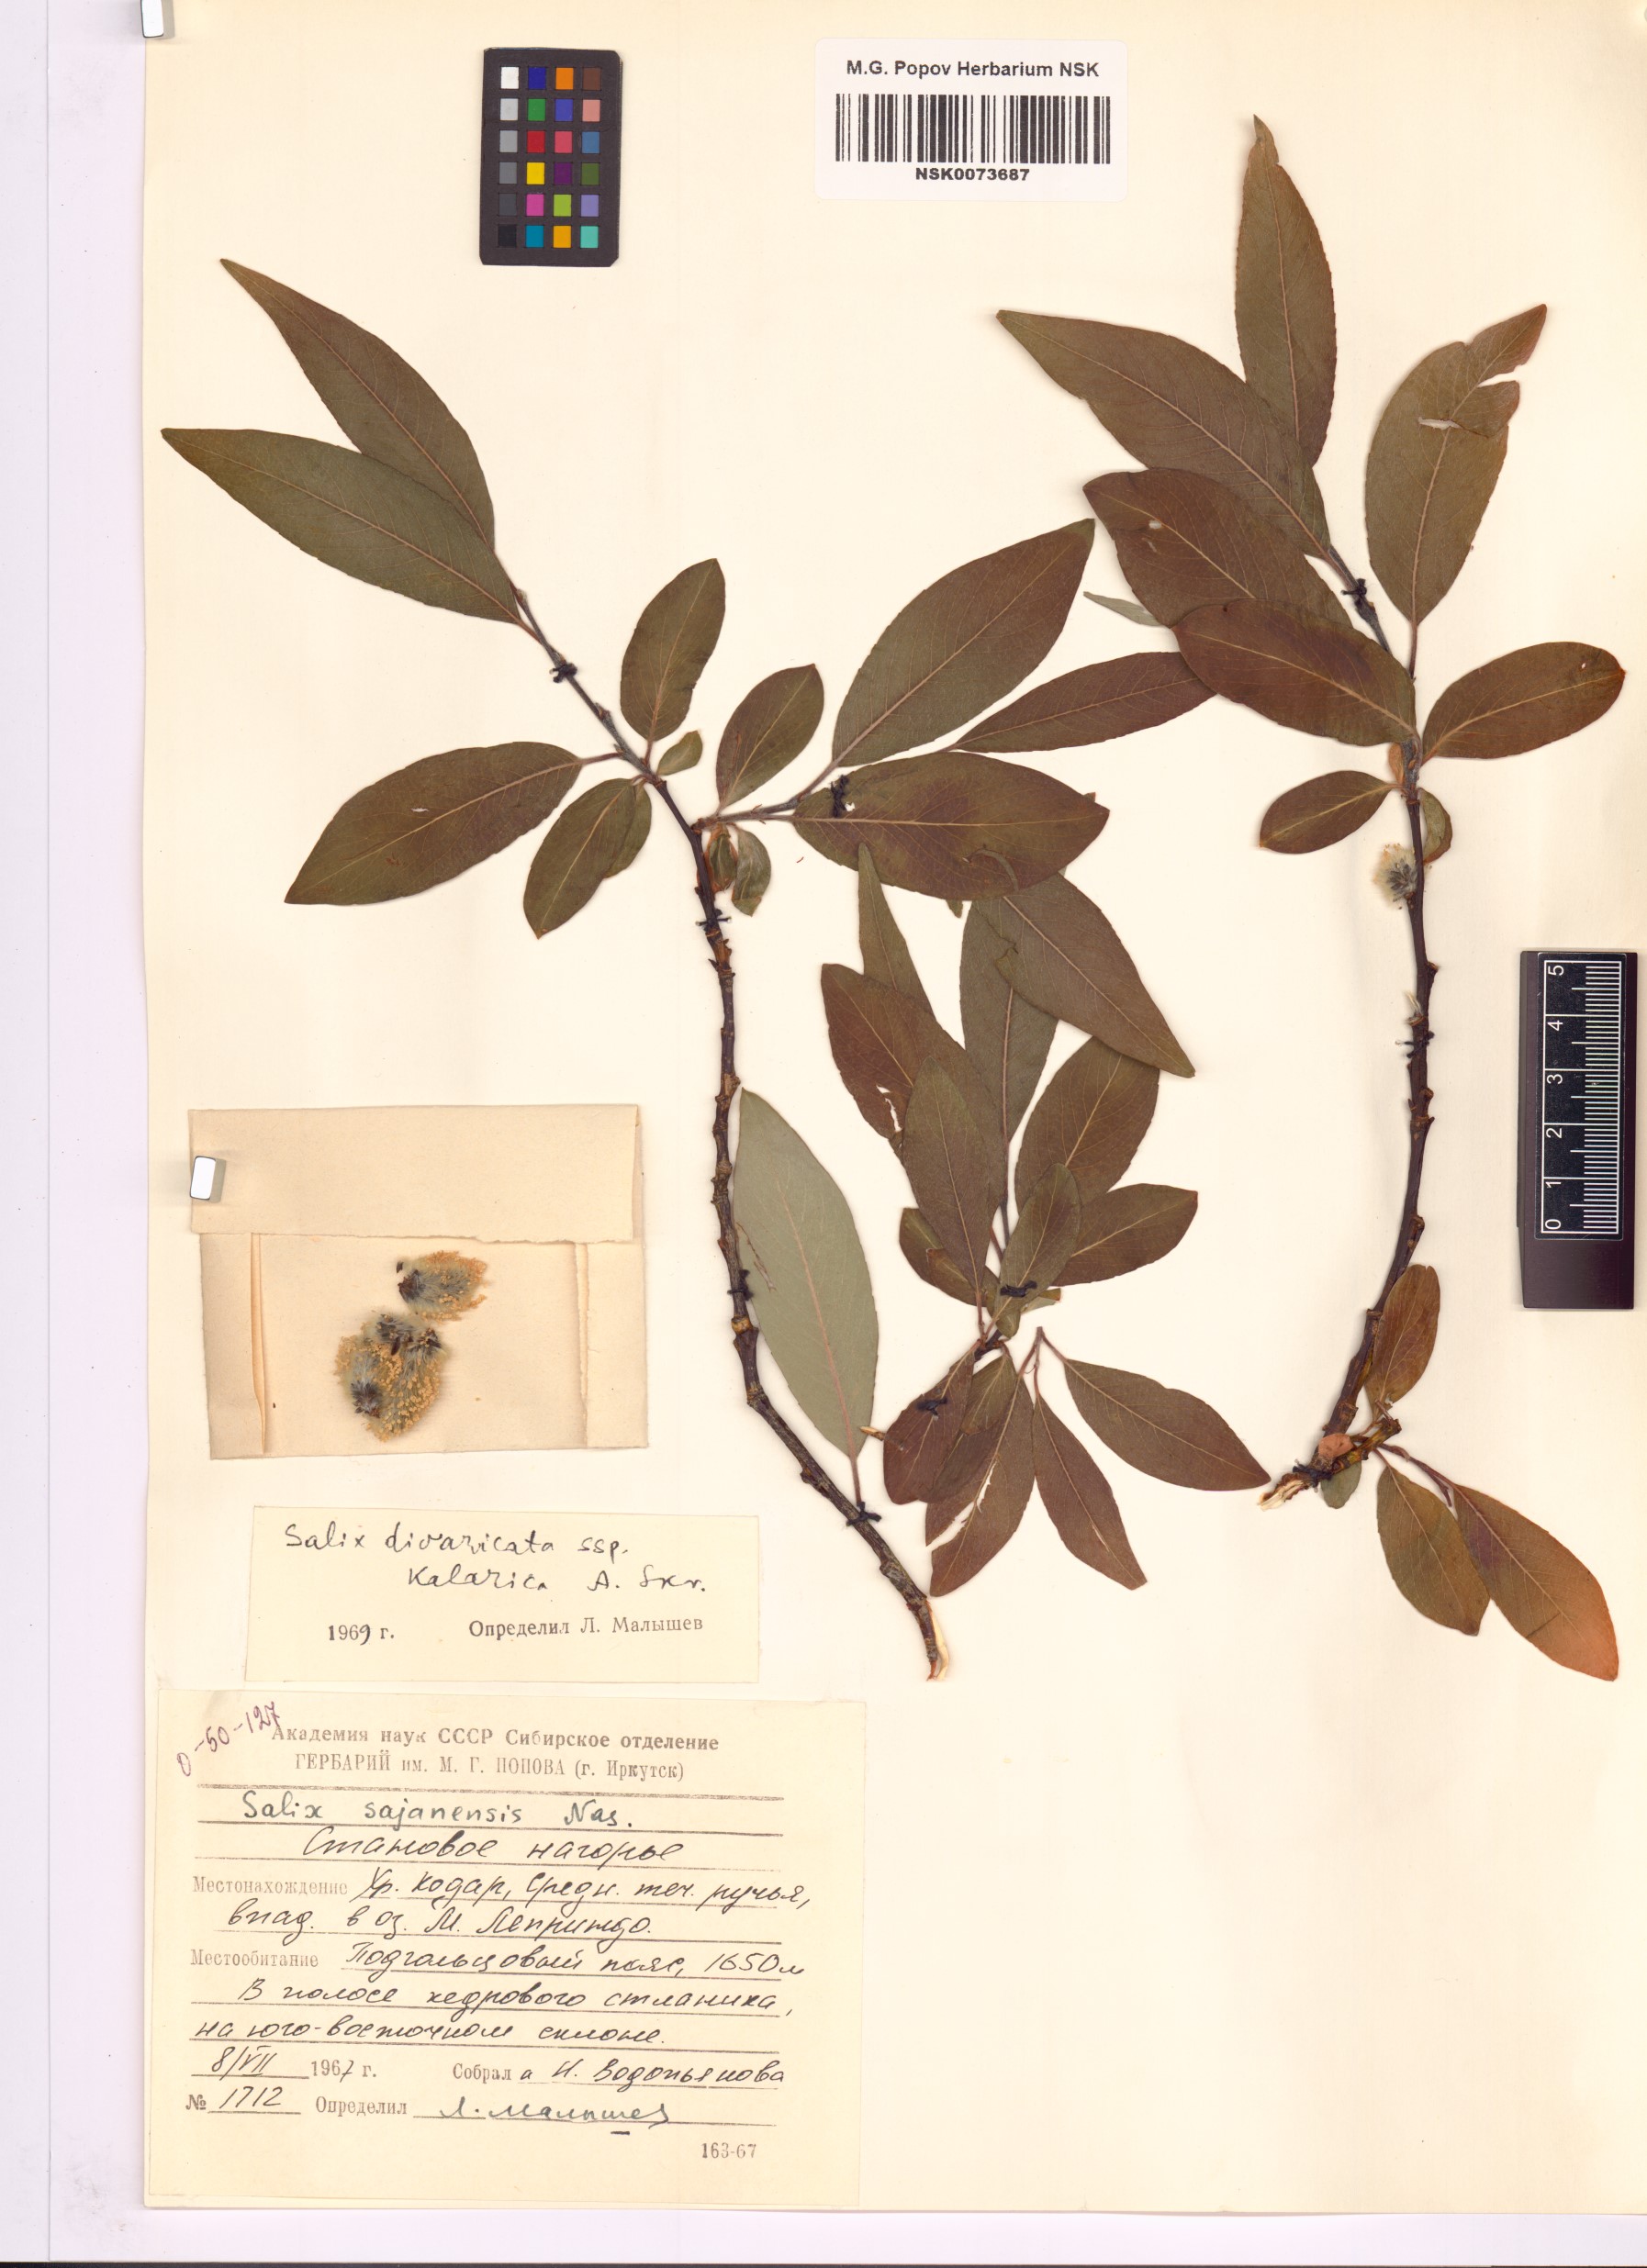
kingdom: Plantae
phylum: Tracheophyta
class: Magnoliopsida
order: Malpighiales
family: Salicaceae
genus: Salix
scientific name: Salix kalarica
